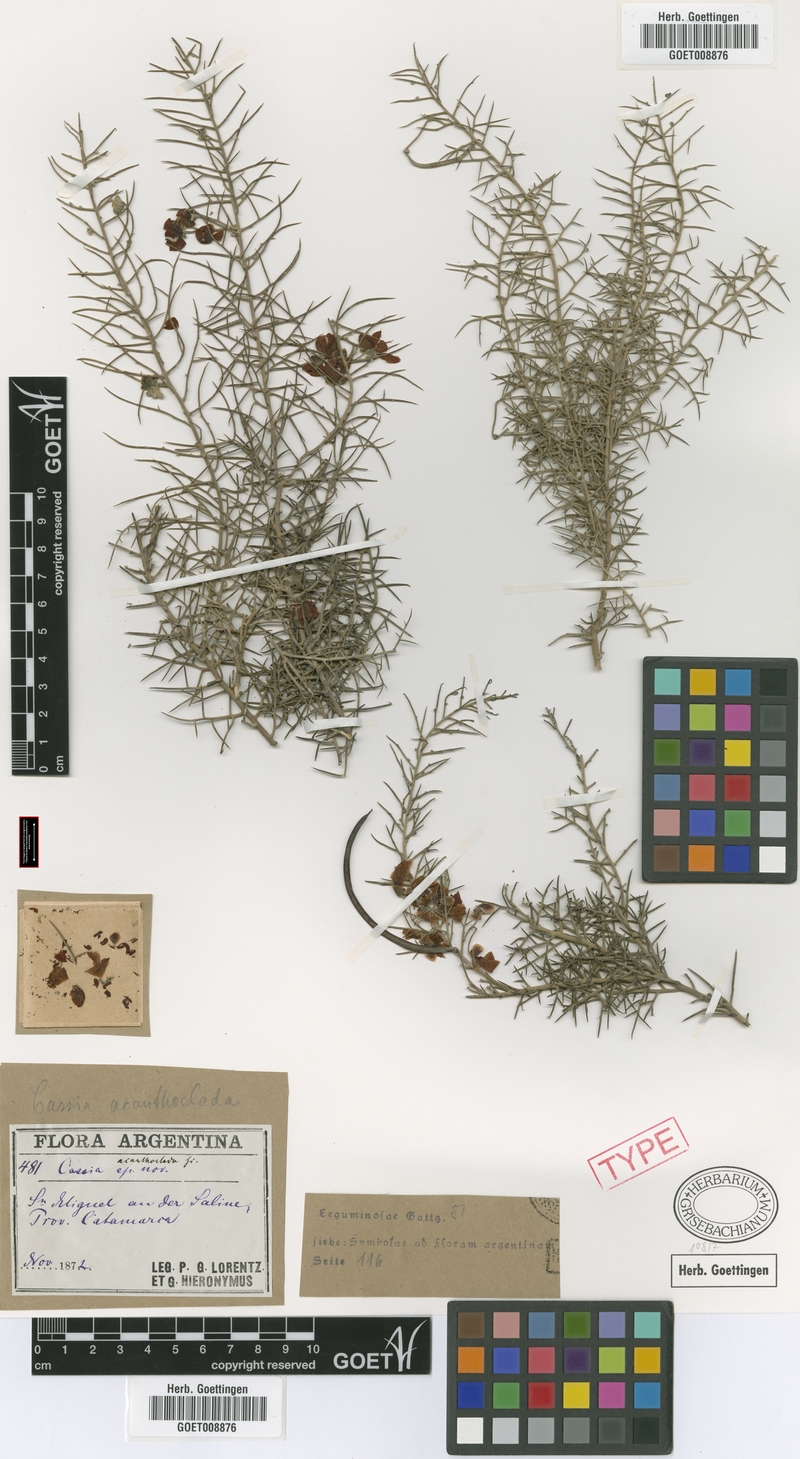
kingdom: Plantae
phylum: Tracheophyta
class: Magnoliopsida
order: Fabales
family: Fabaceae
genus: Senna
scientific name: Senna acanthoclada
